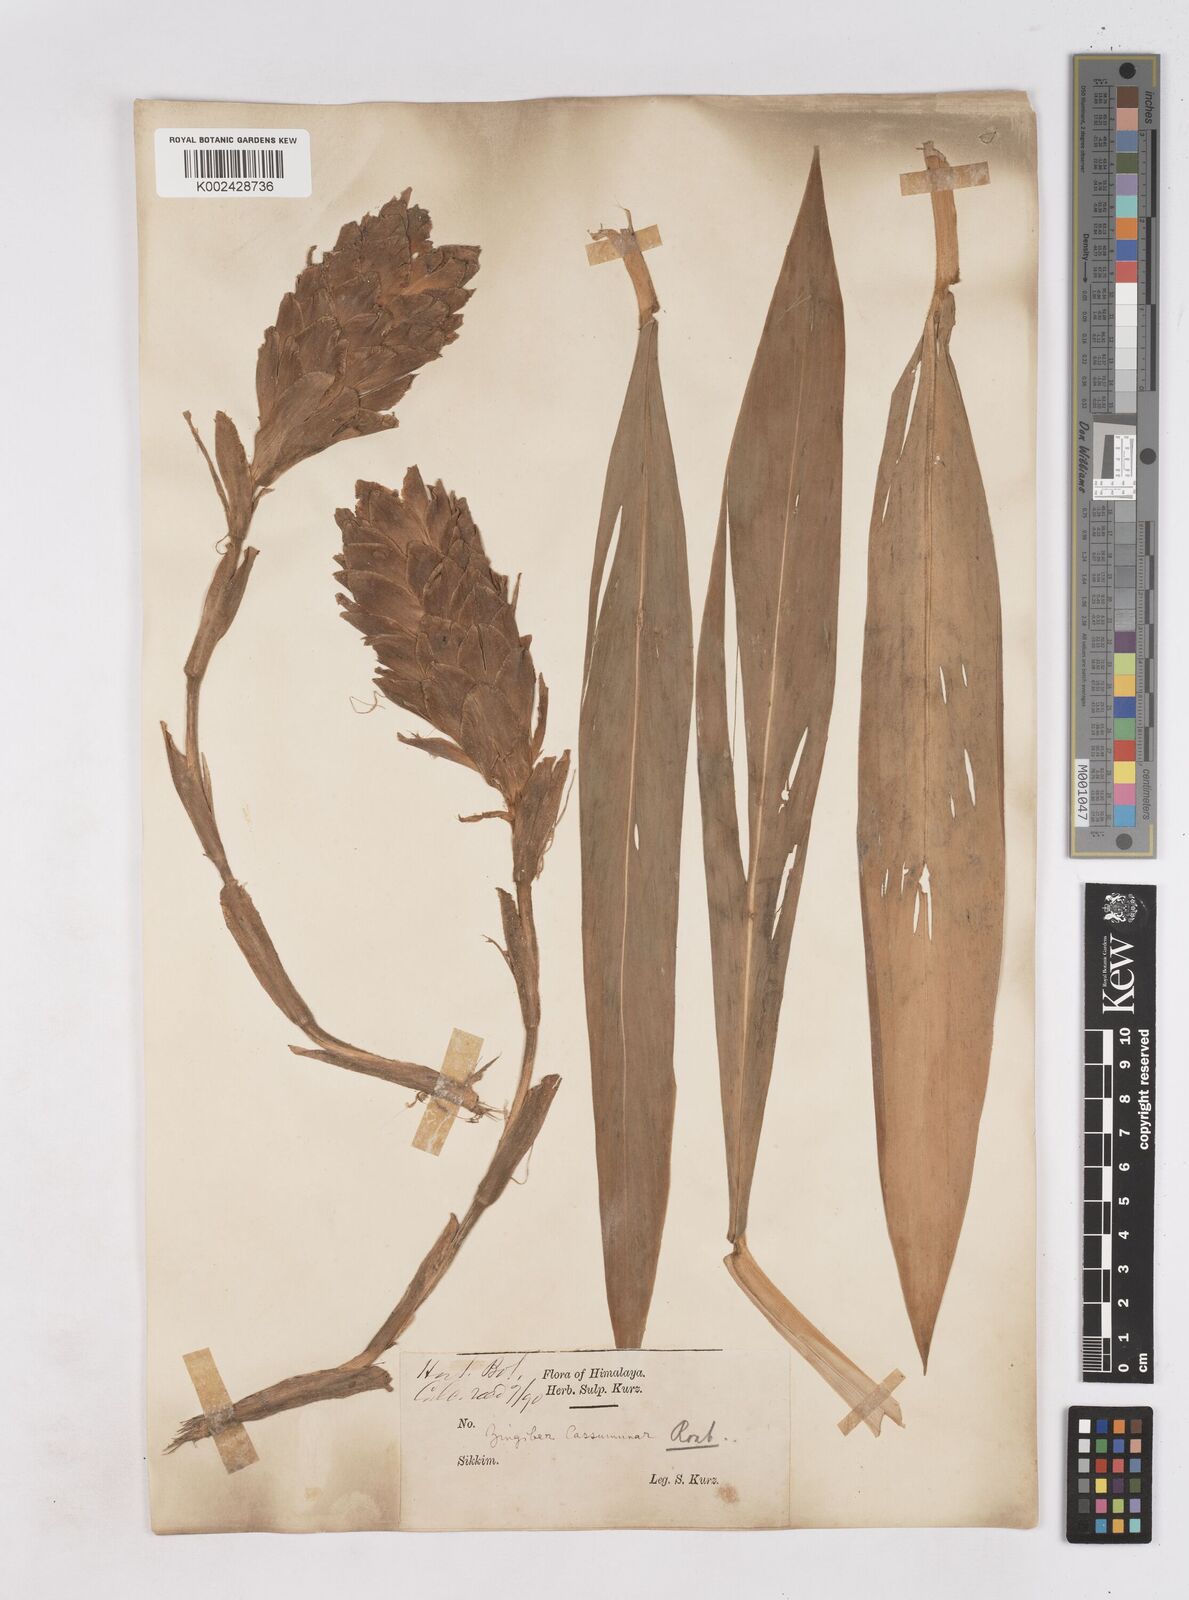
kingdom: Plantae
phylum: Tracheophyta
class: Liliopsida
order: Zingiberales
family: Zingiberaceae
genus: Zingiber
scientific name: Zingiber montanum
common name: Bengal ginger
